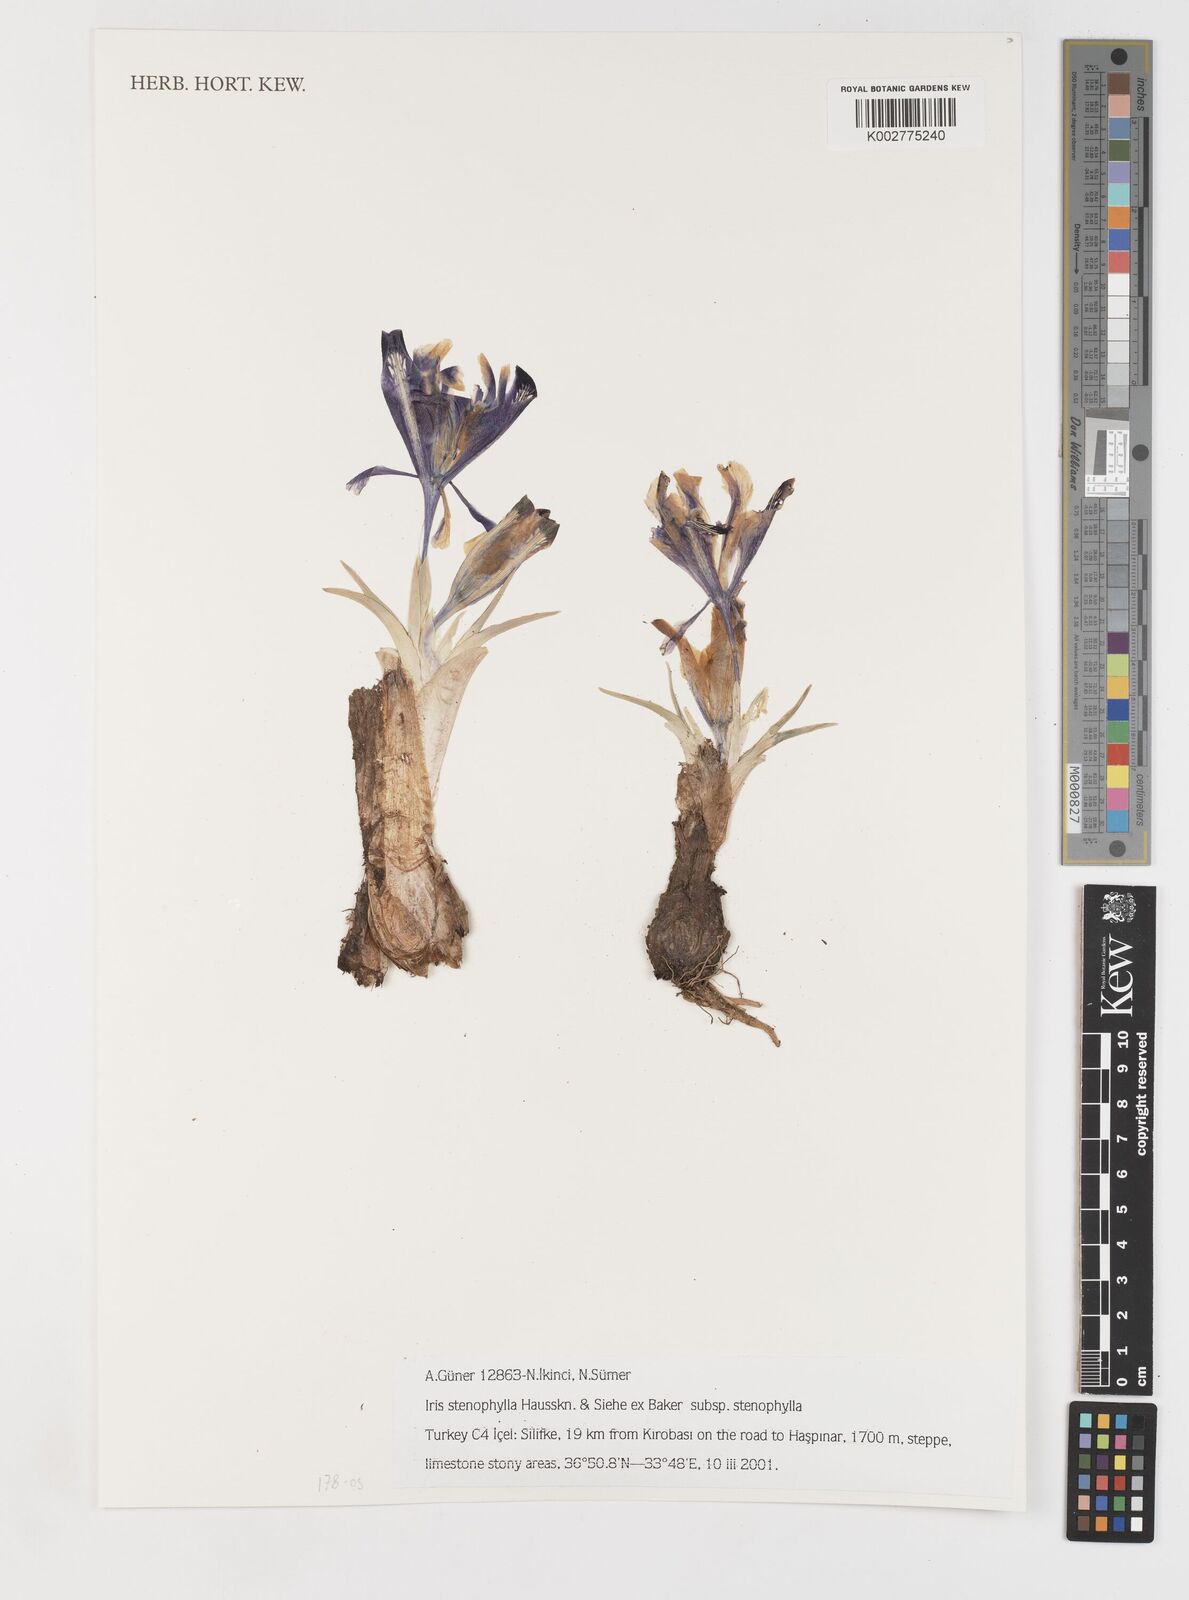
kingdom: Plantae
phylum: Tracheophyta
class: Liliopsida
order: Asparagales
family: Iridaceae
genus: Iris
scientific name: Iris stenophylla
